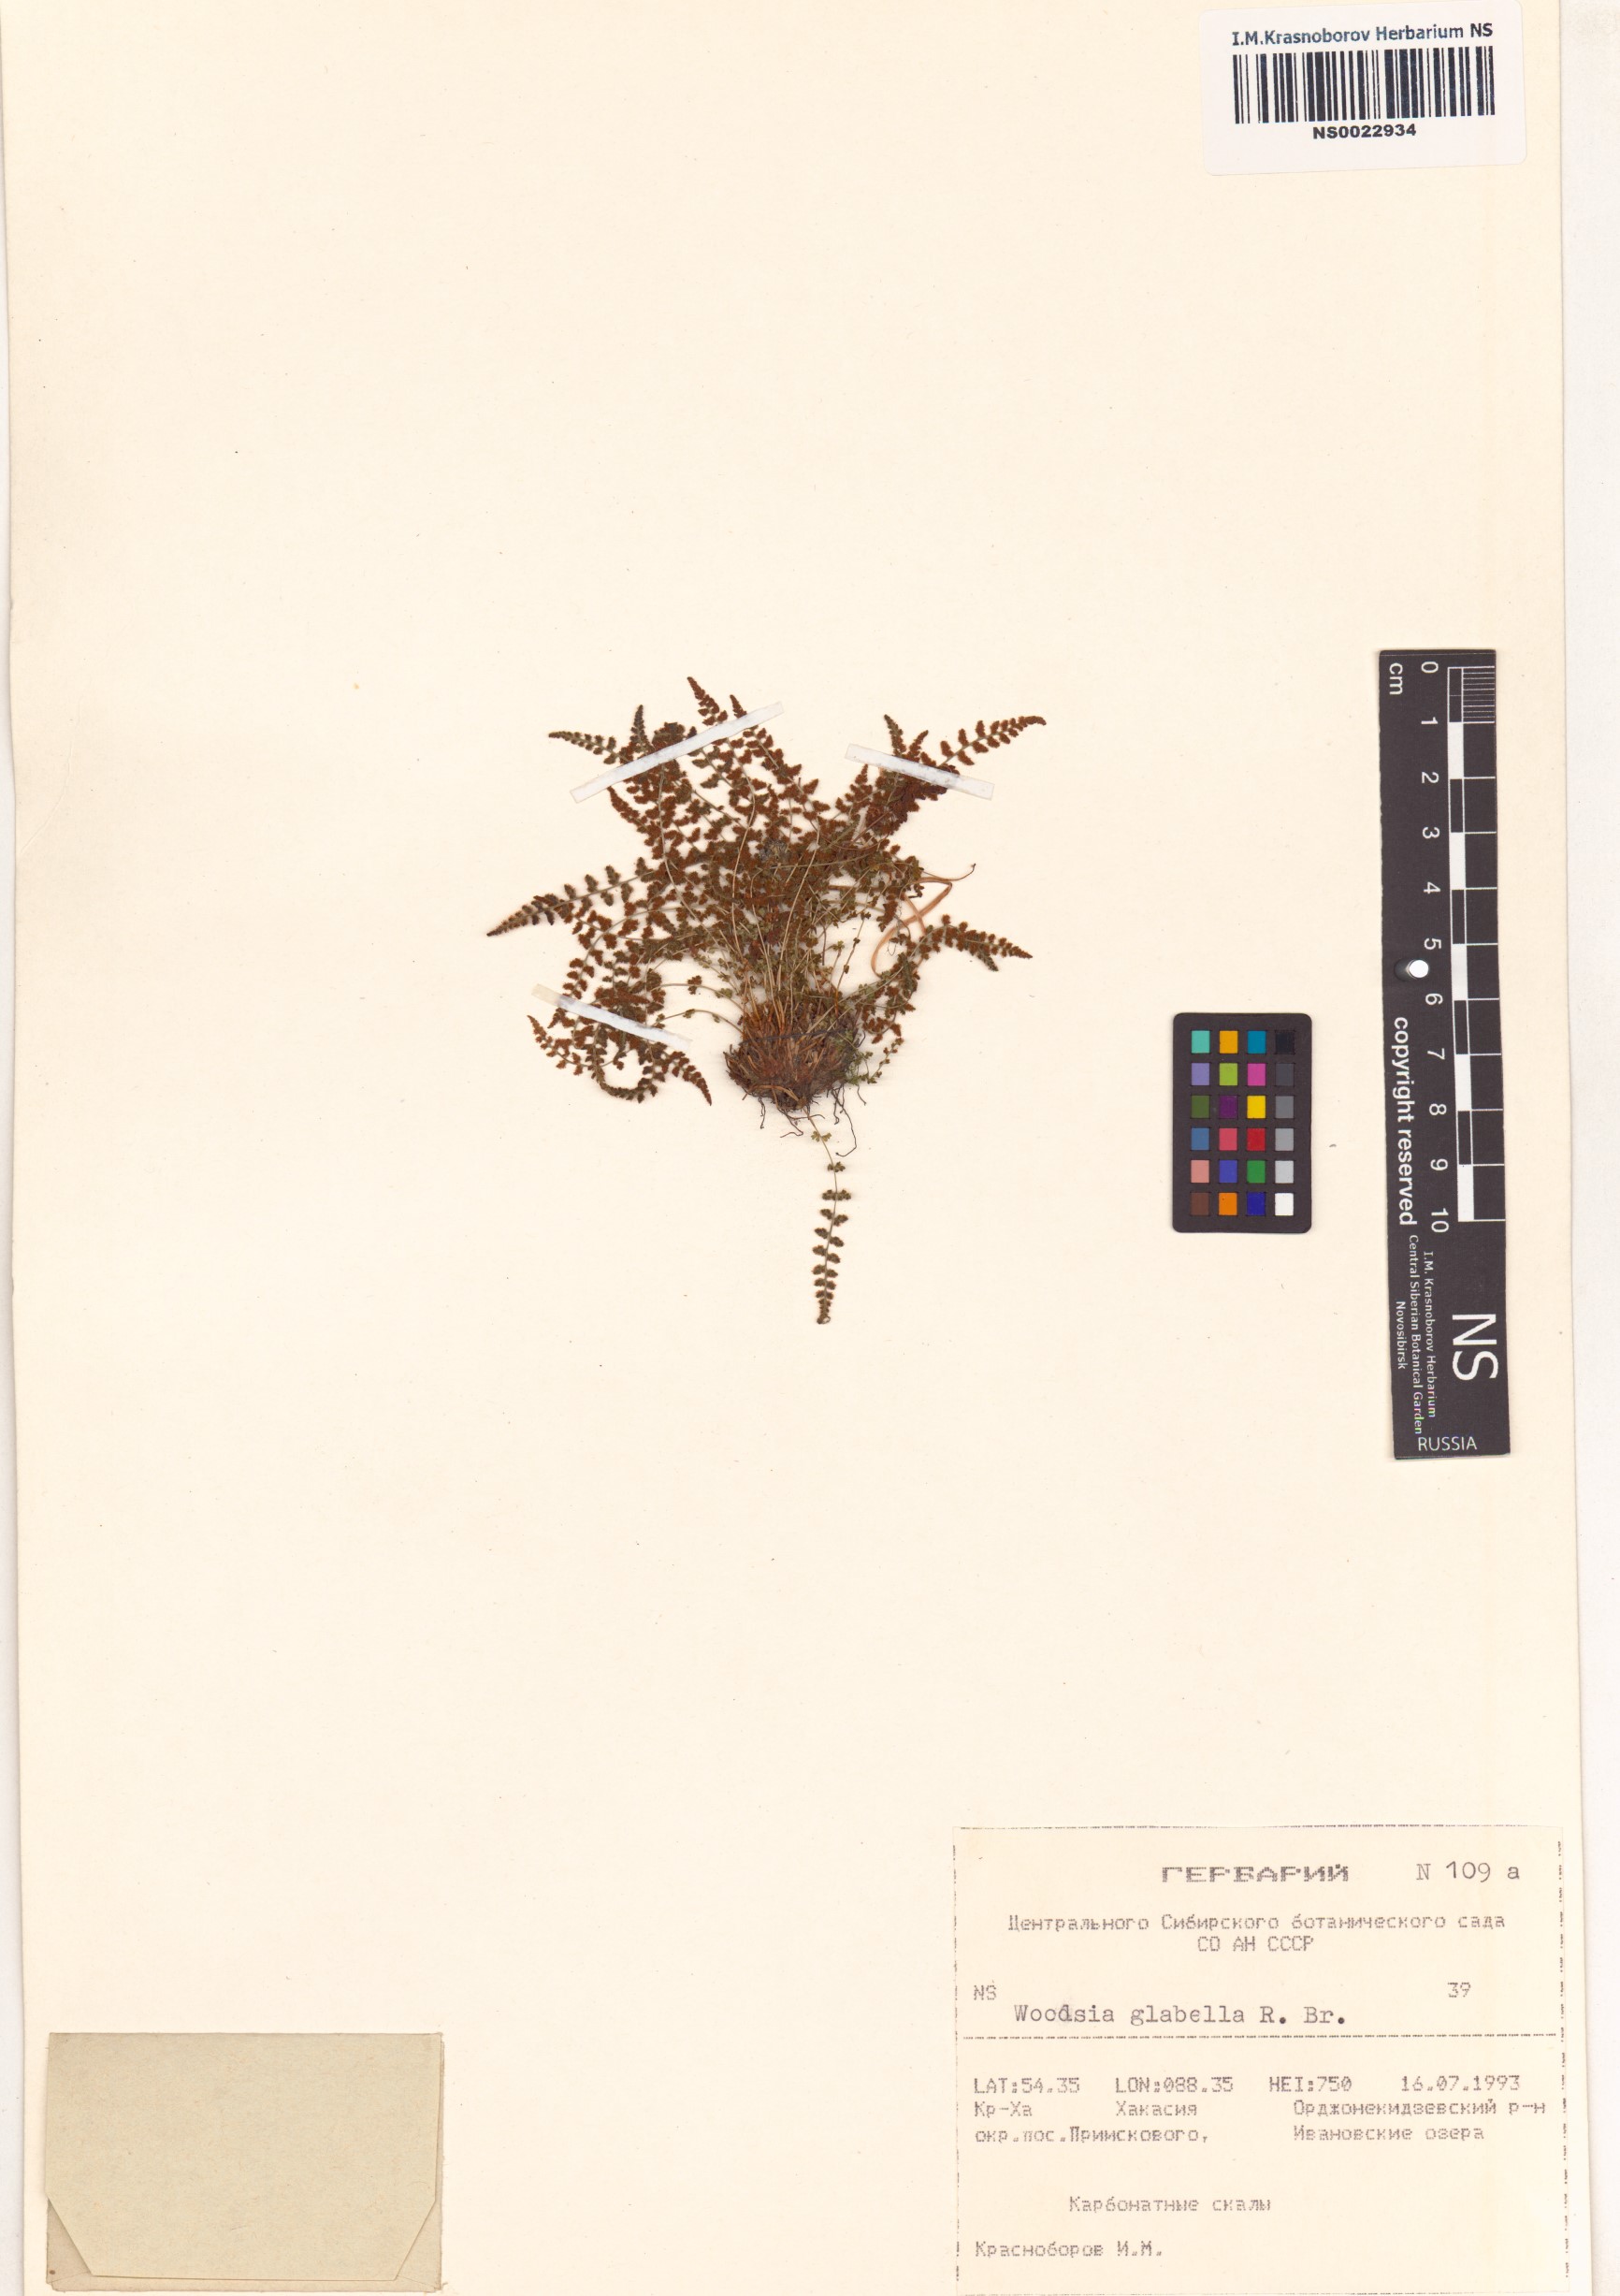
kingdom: Plantae
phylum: Tracheophyta
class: Polypodiopsida
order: Polypodiales
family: Woodsiaceae
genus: Woodsia
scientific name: Woodsia glabella
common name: Smooth woodsia
